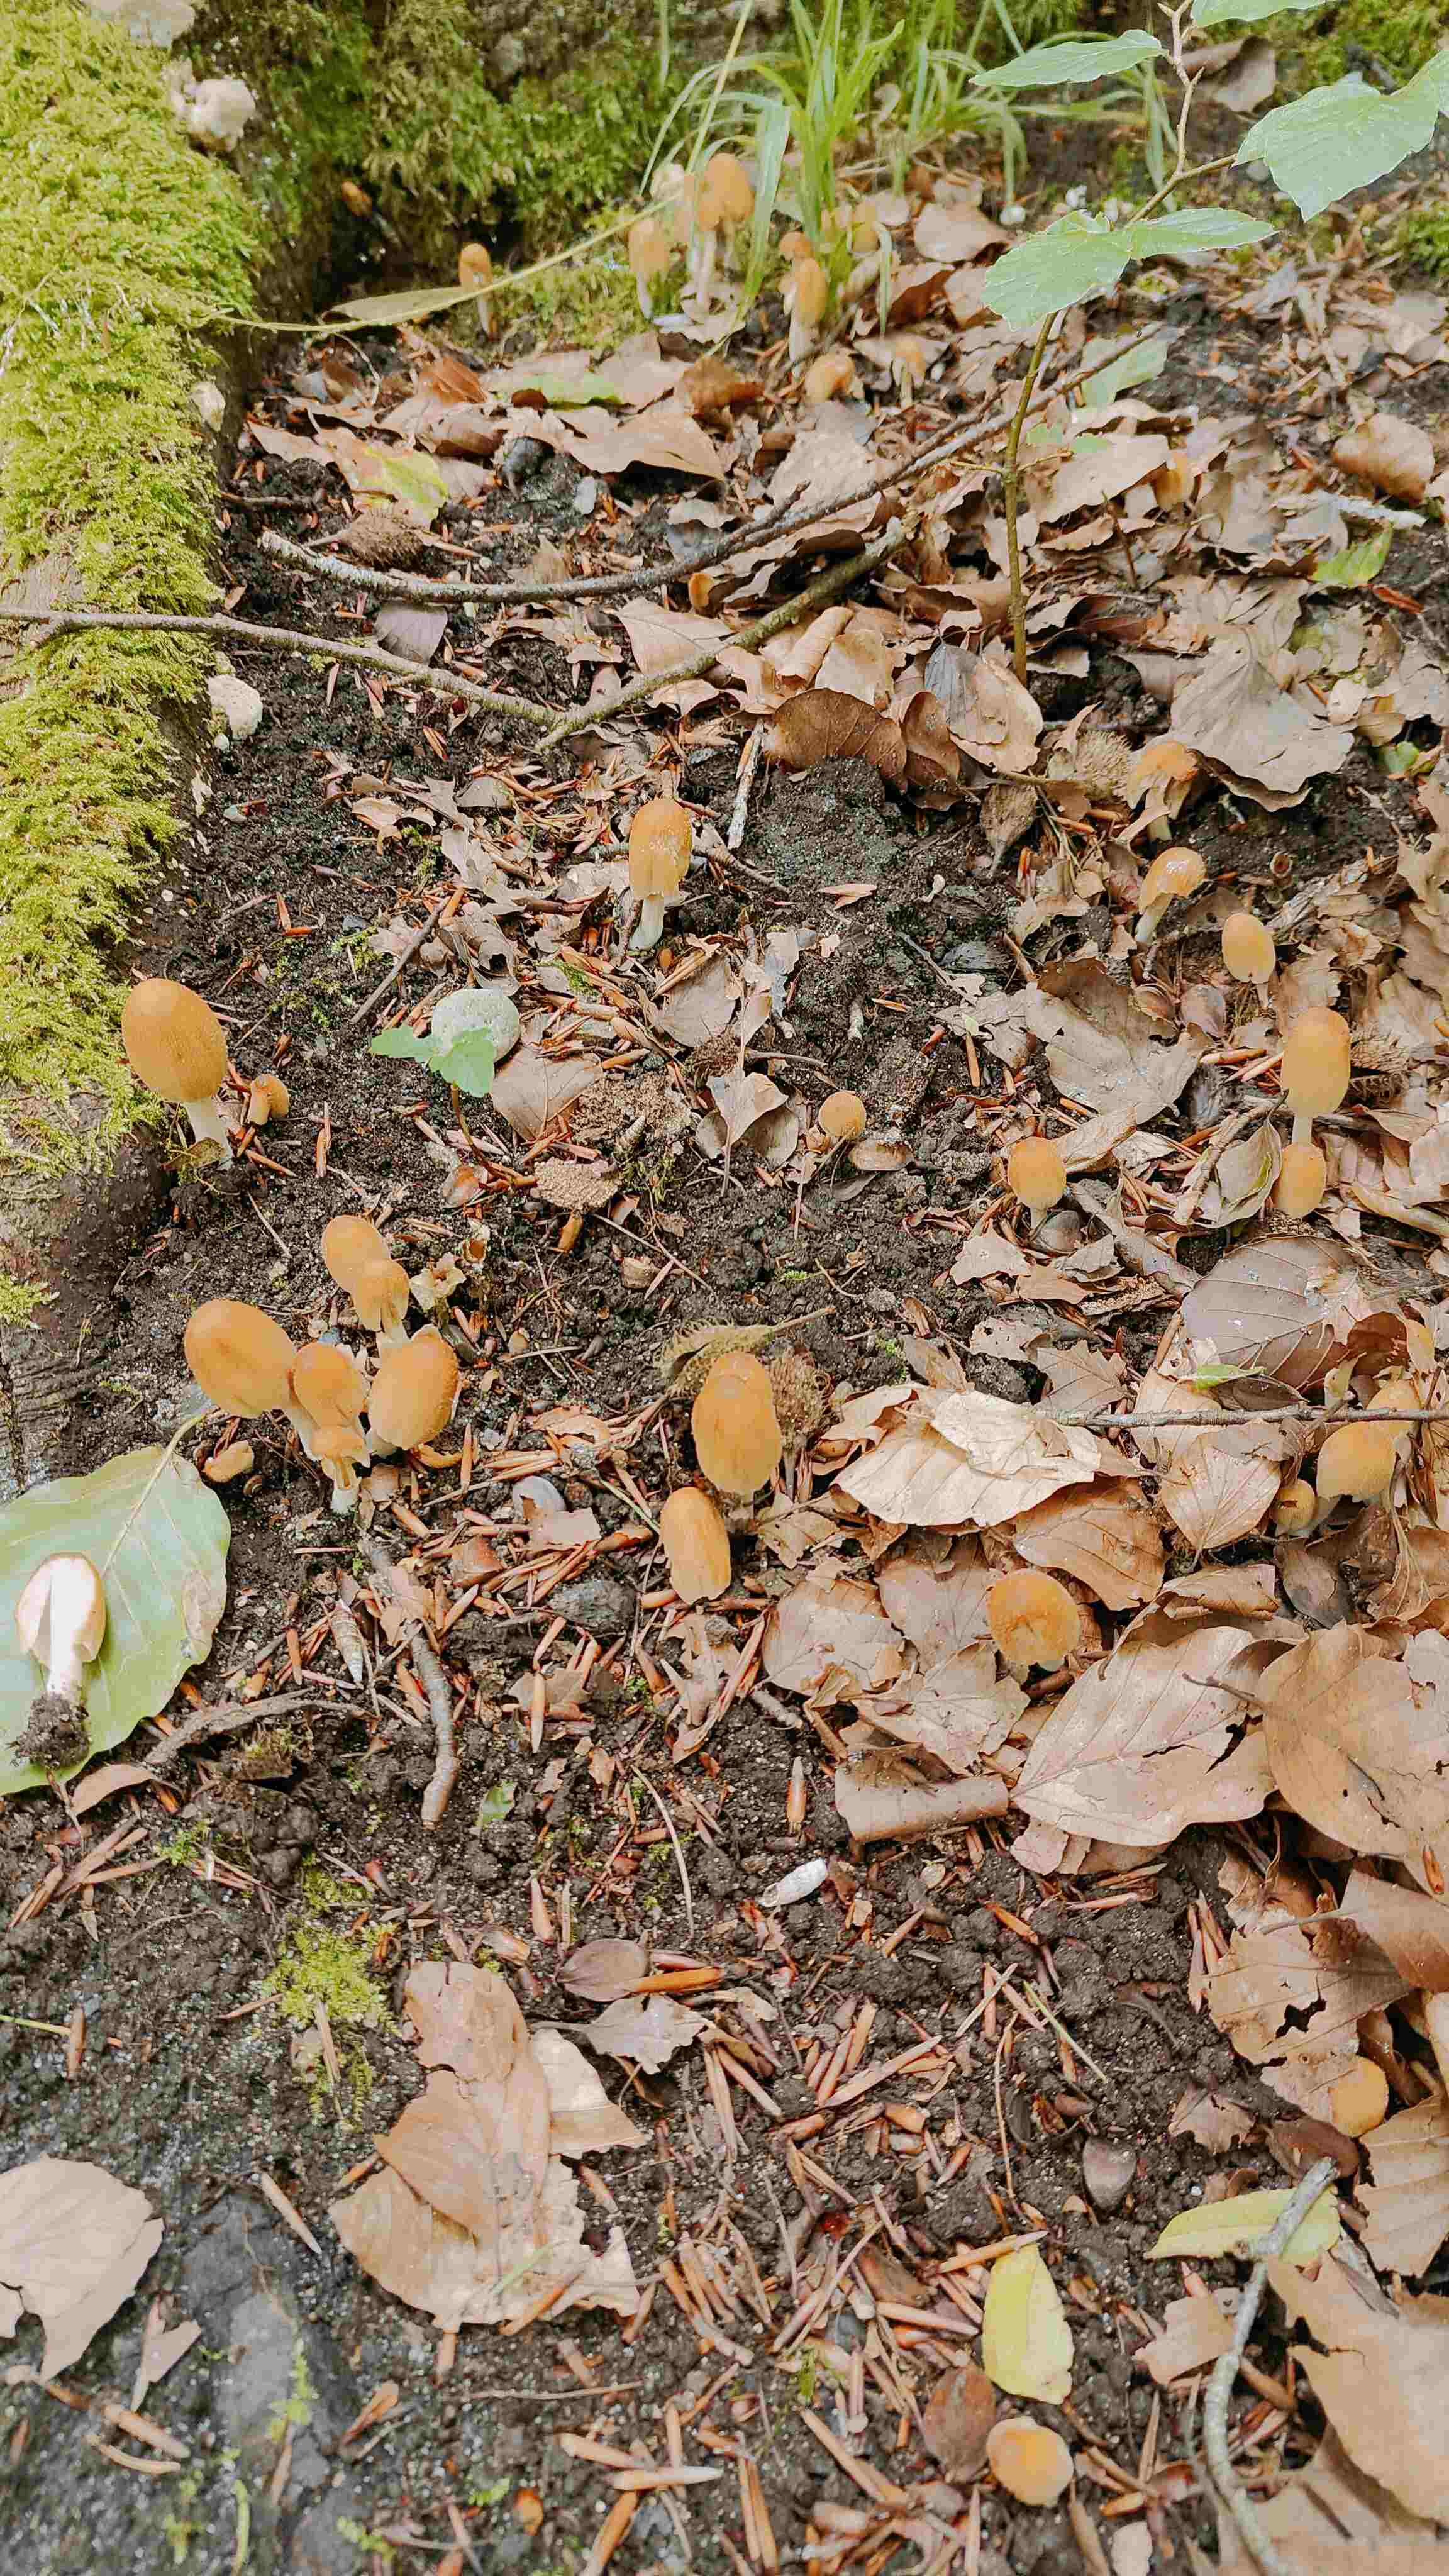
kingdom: Fungi
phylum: Basidiomycota
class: Agaricomycetes
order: Agaricales
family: Psathyrellaceae
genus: Coprinellus
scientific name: Coprinellus
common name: blækhat
